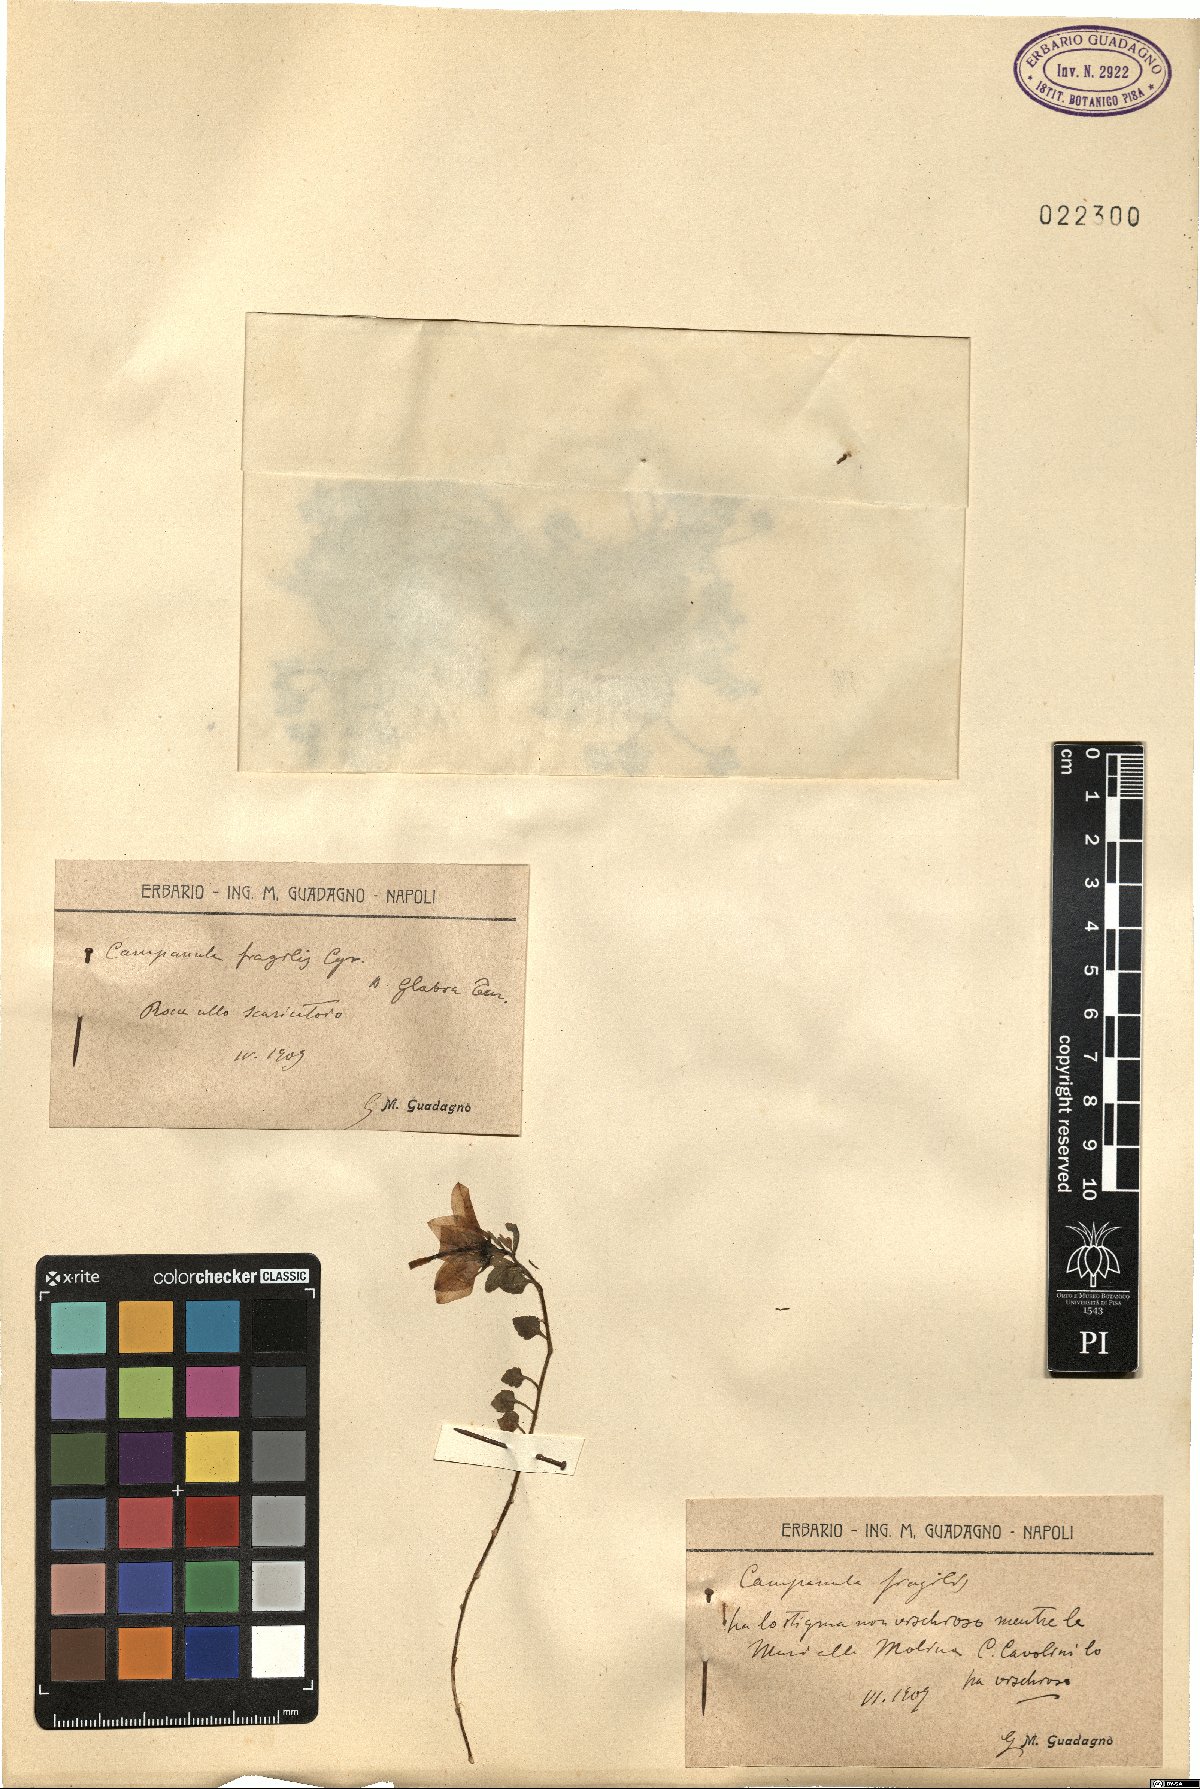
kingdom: Plantae
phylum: Tracheophyta
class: Magnoliopsida
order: Asterales
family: Campanulaceae
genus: Campanula
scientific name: Campanula fragilis
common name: Italian bellflower
